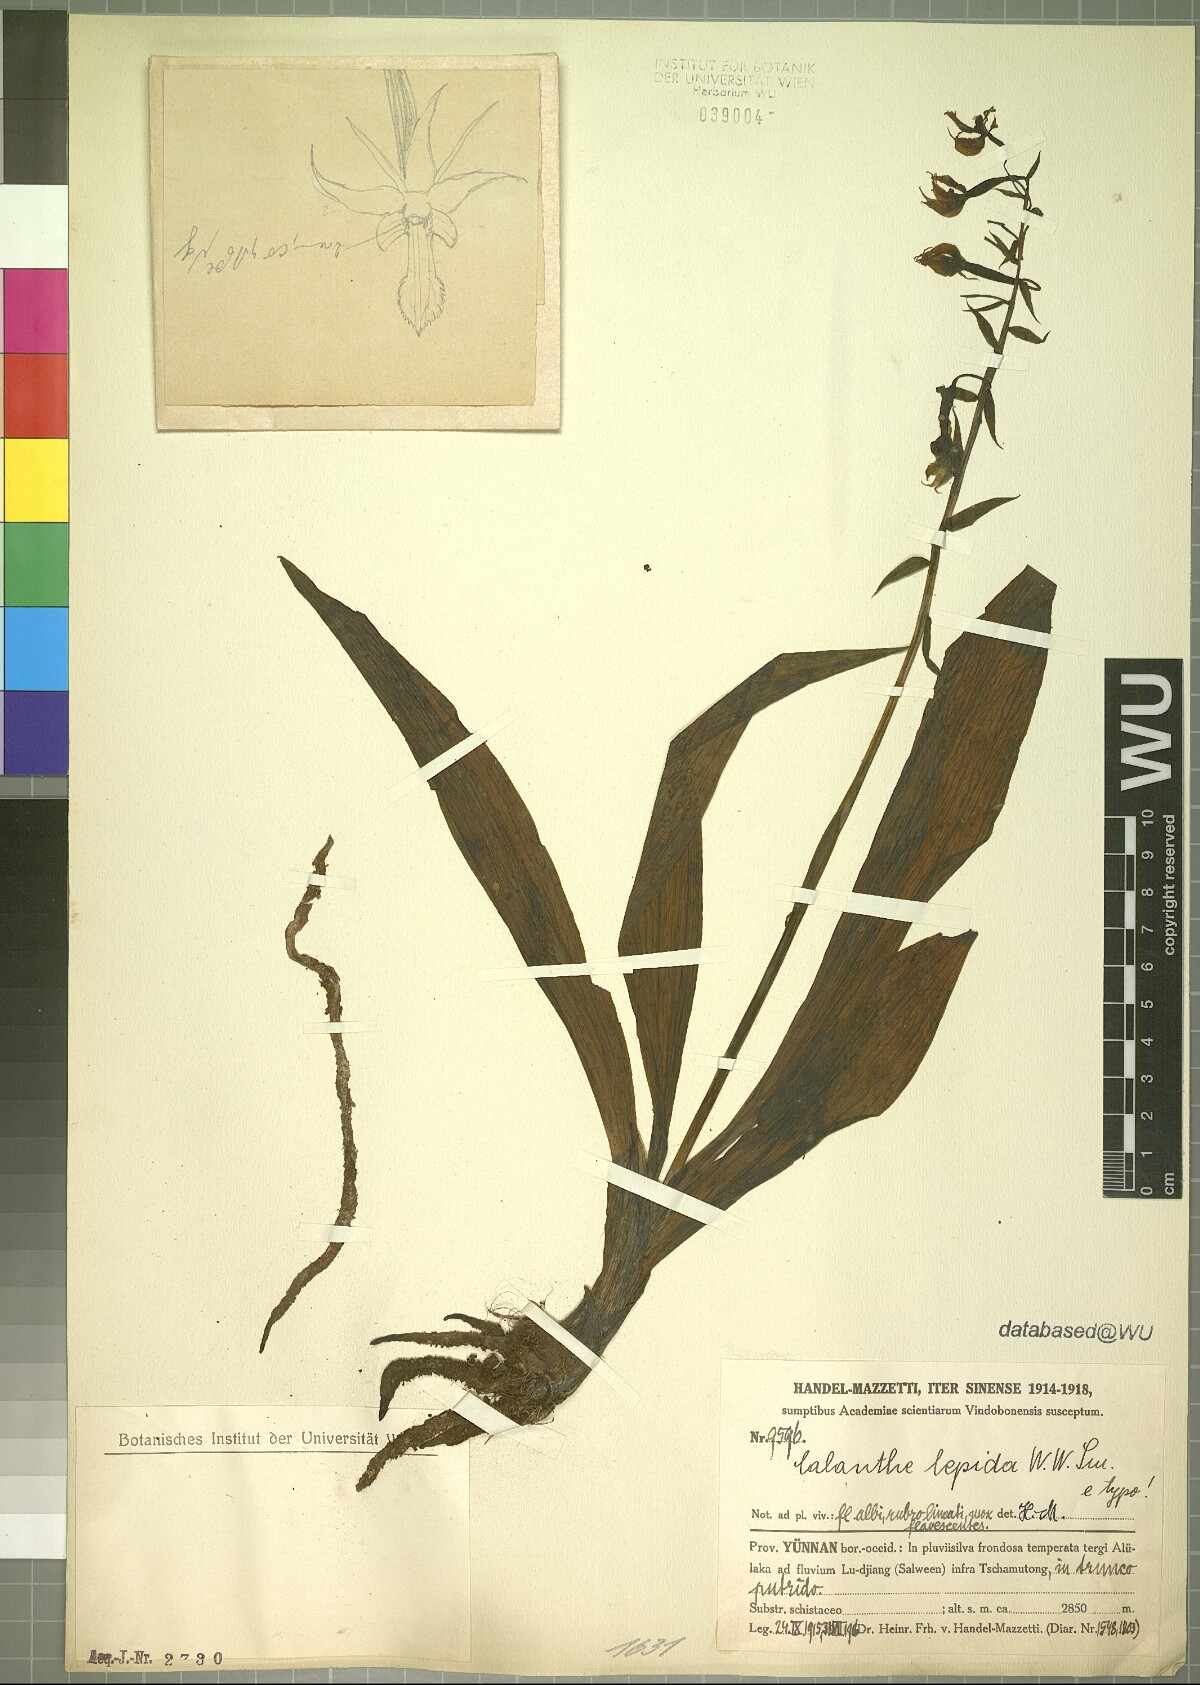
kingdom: Plantae
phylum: Tracheophyta
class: Liliopsida
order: Asparagales
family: Orchidaceae
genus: Calanthe
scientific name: Calanthe puberula
